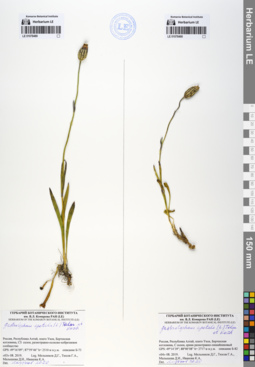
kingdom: Plantae
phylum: Tracheophyta
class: Magnoliopsida
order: Caryophyllales
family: Caryophyllaceae
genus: Silene
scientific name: Silene wahlbergella
